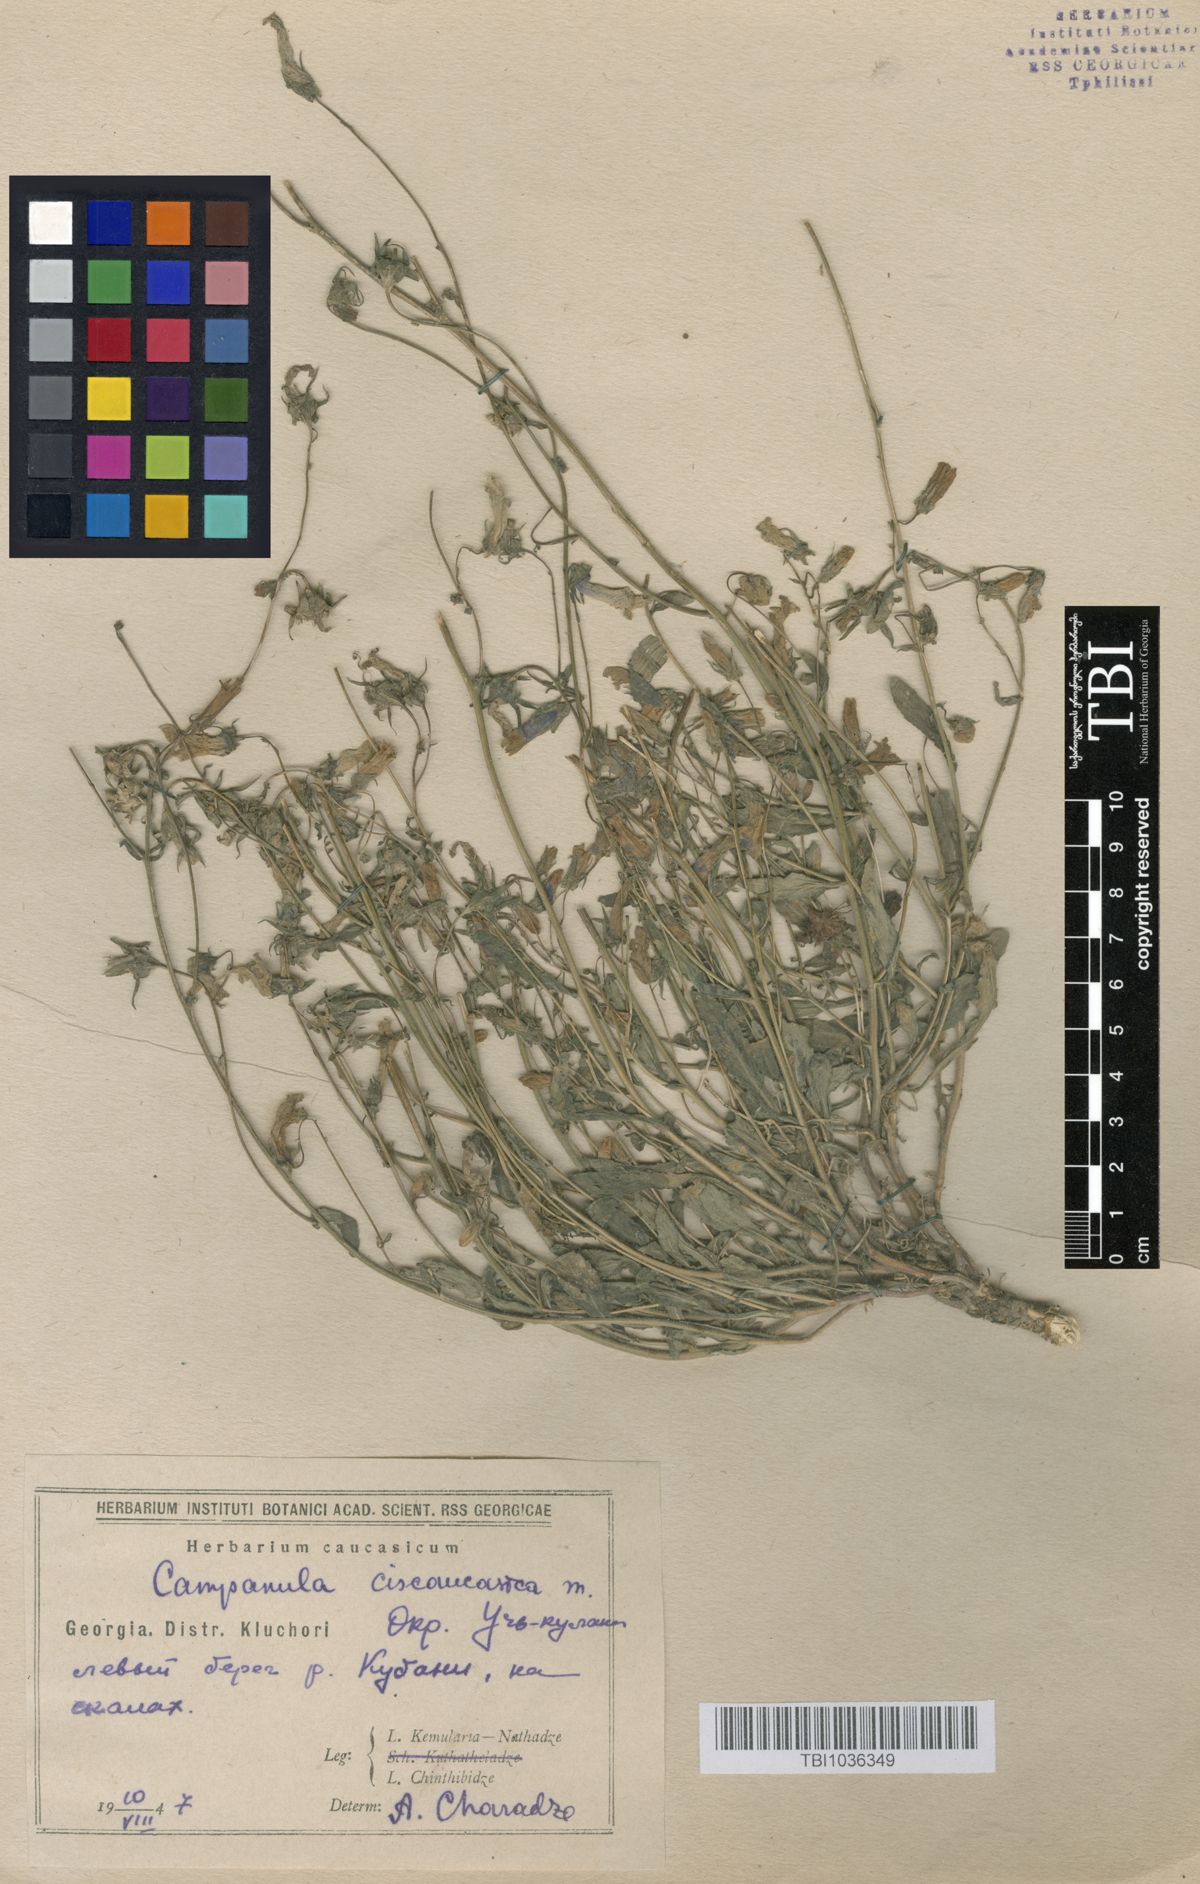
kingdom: Plantae
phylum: Tracheophyta
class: Magnoliopsida
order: Asterales
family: Campanulaceae
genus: Campanula
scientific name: Campanula sibirica
